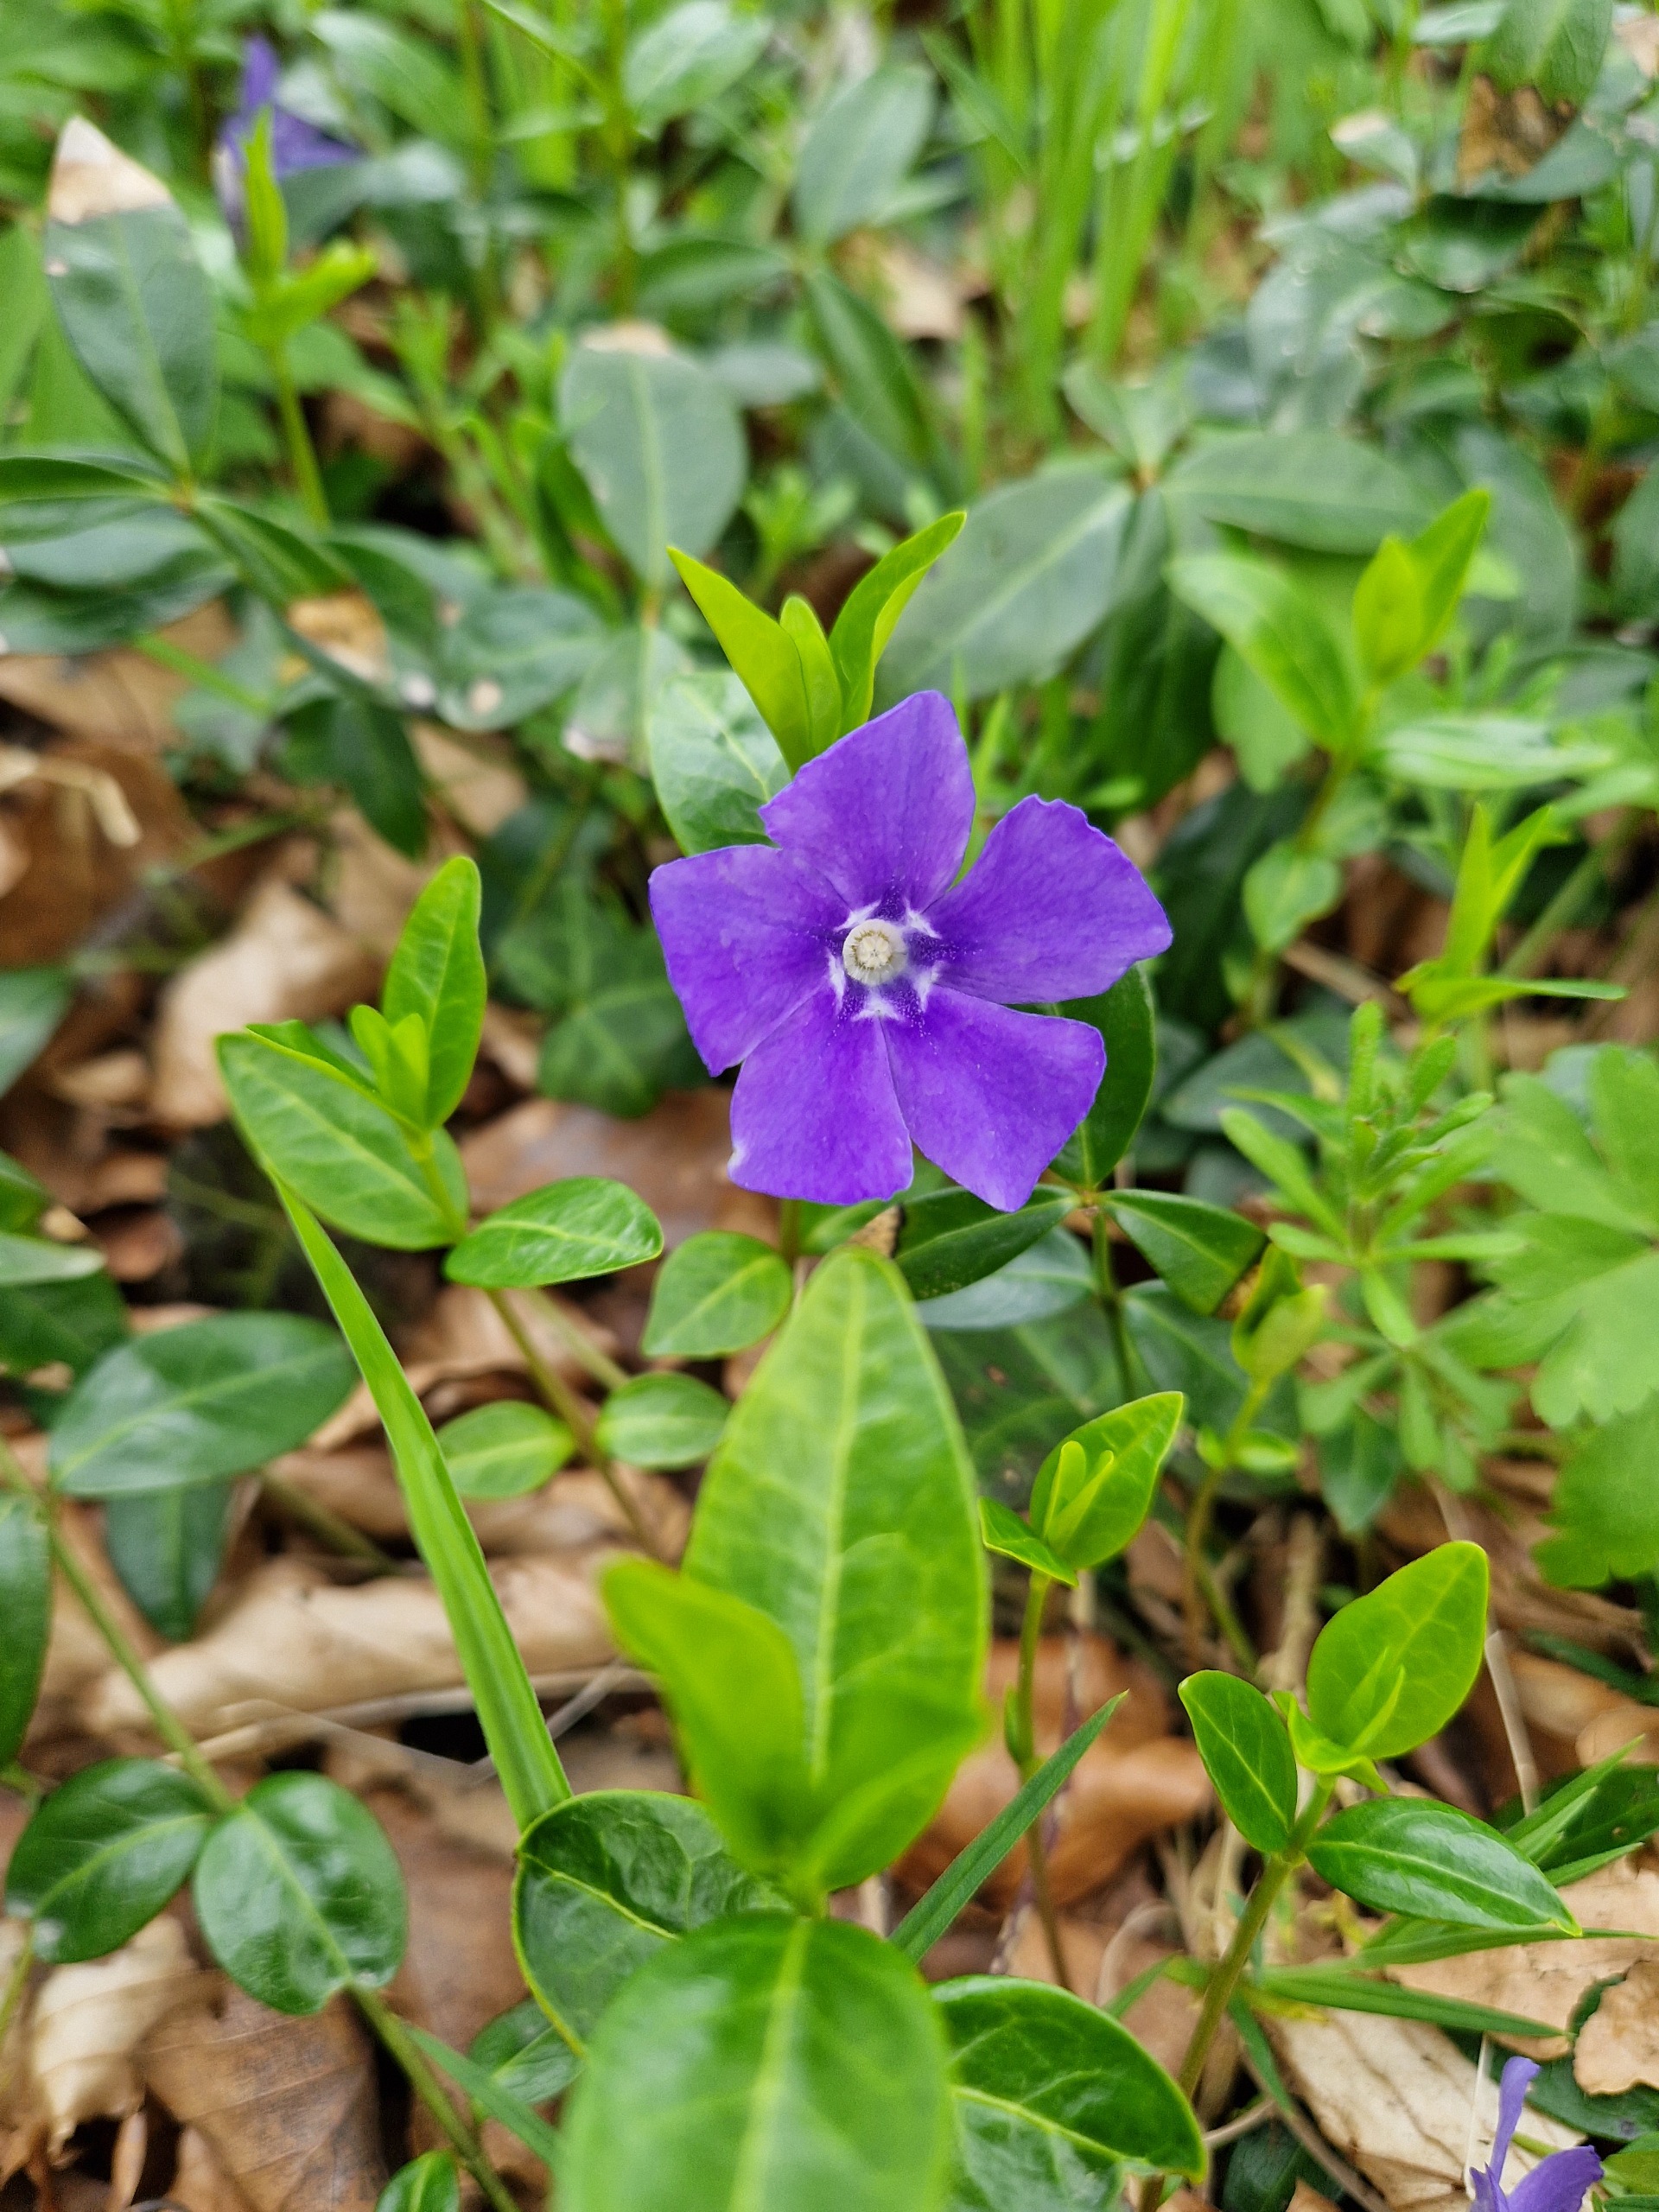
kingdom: Plantae
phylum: Tracheophyta
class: Magnoliopsida
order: Gentianales
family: Apocynaceae
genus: Vinca
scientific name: Vinca minor
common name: Liden singrøn
